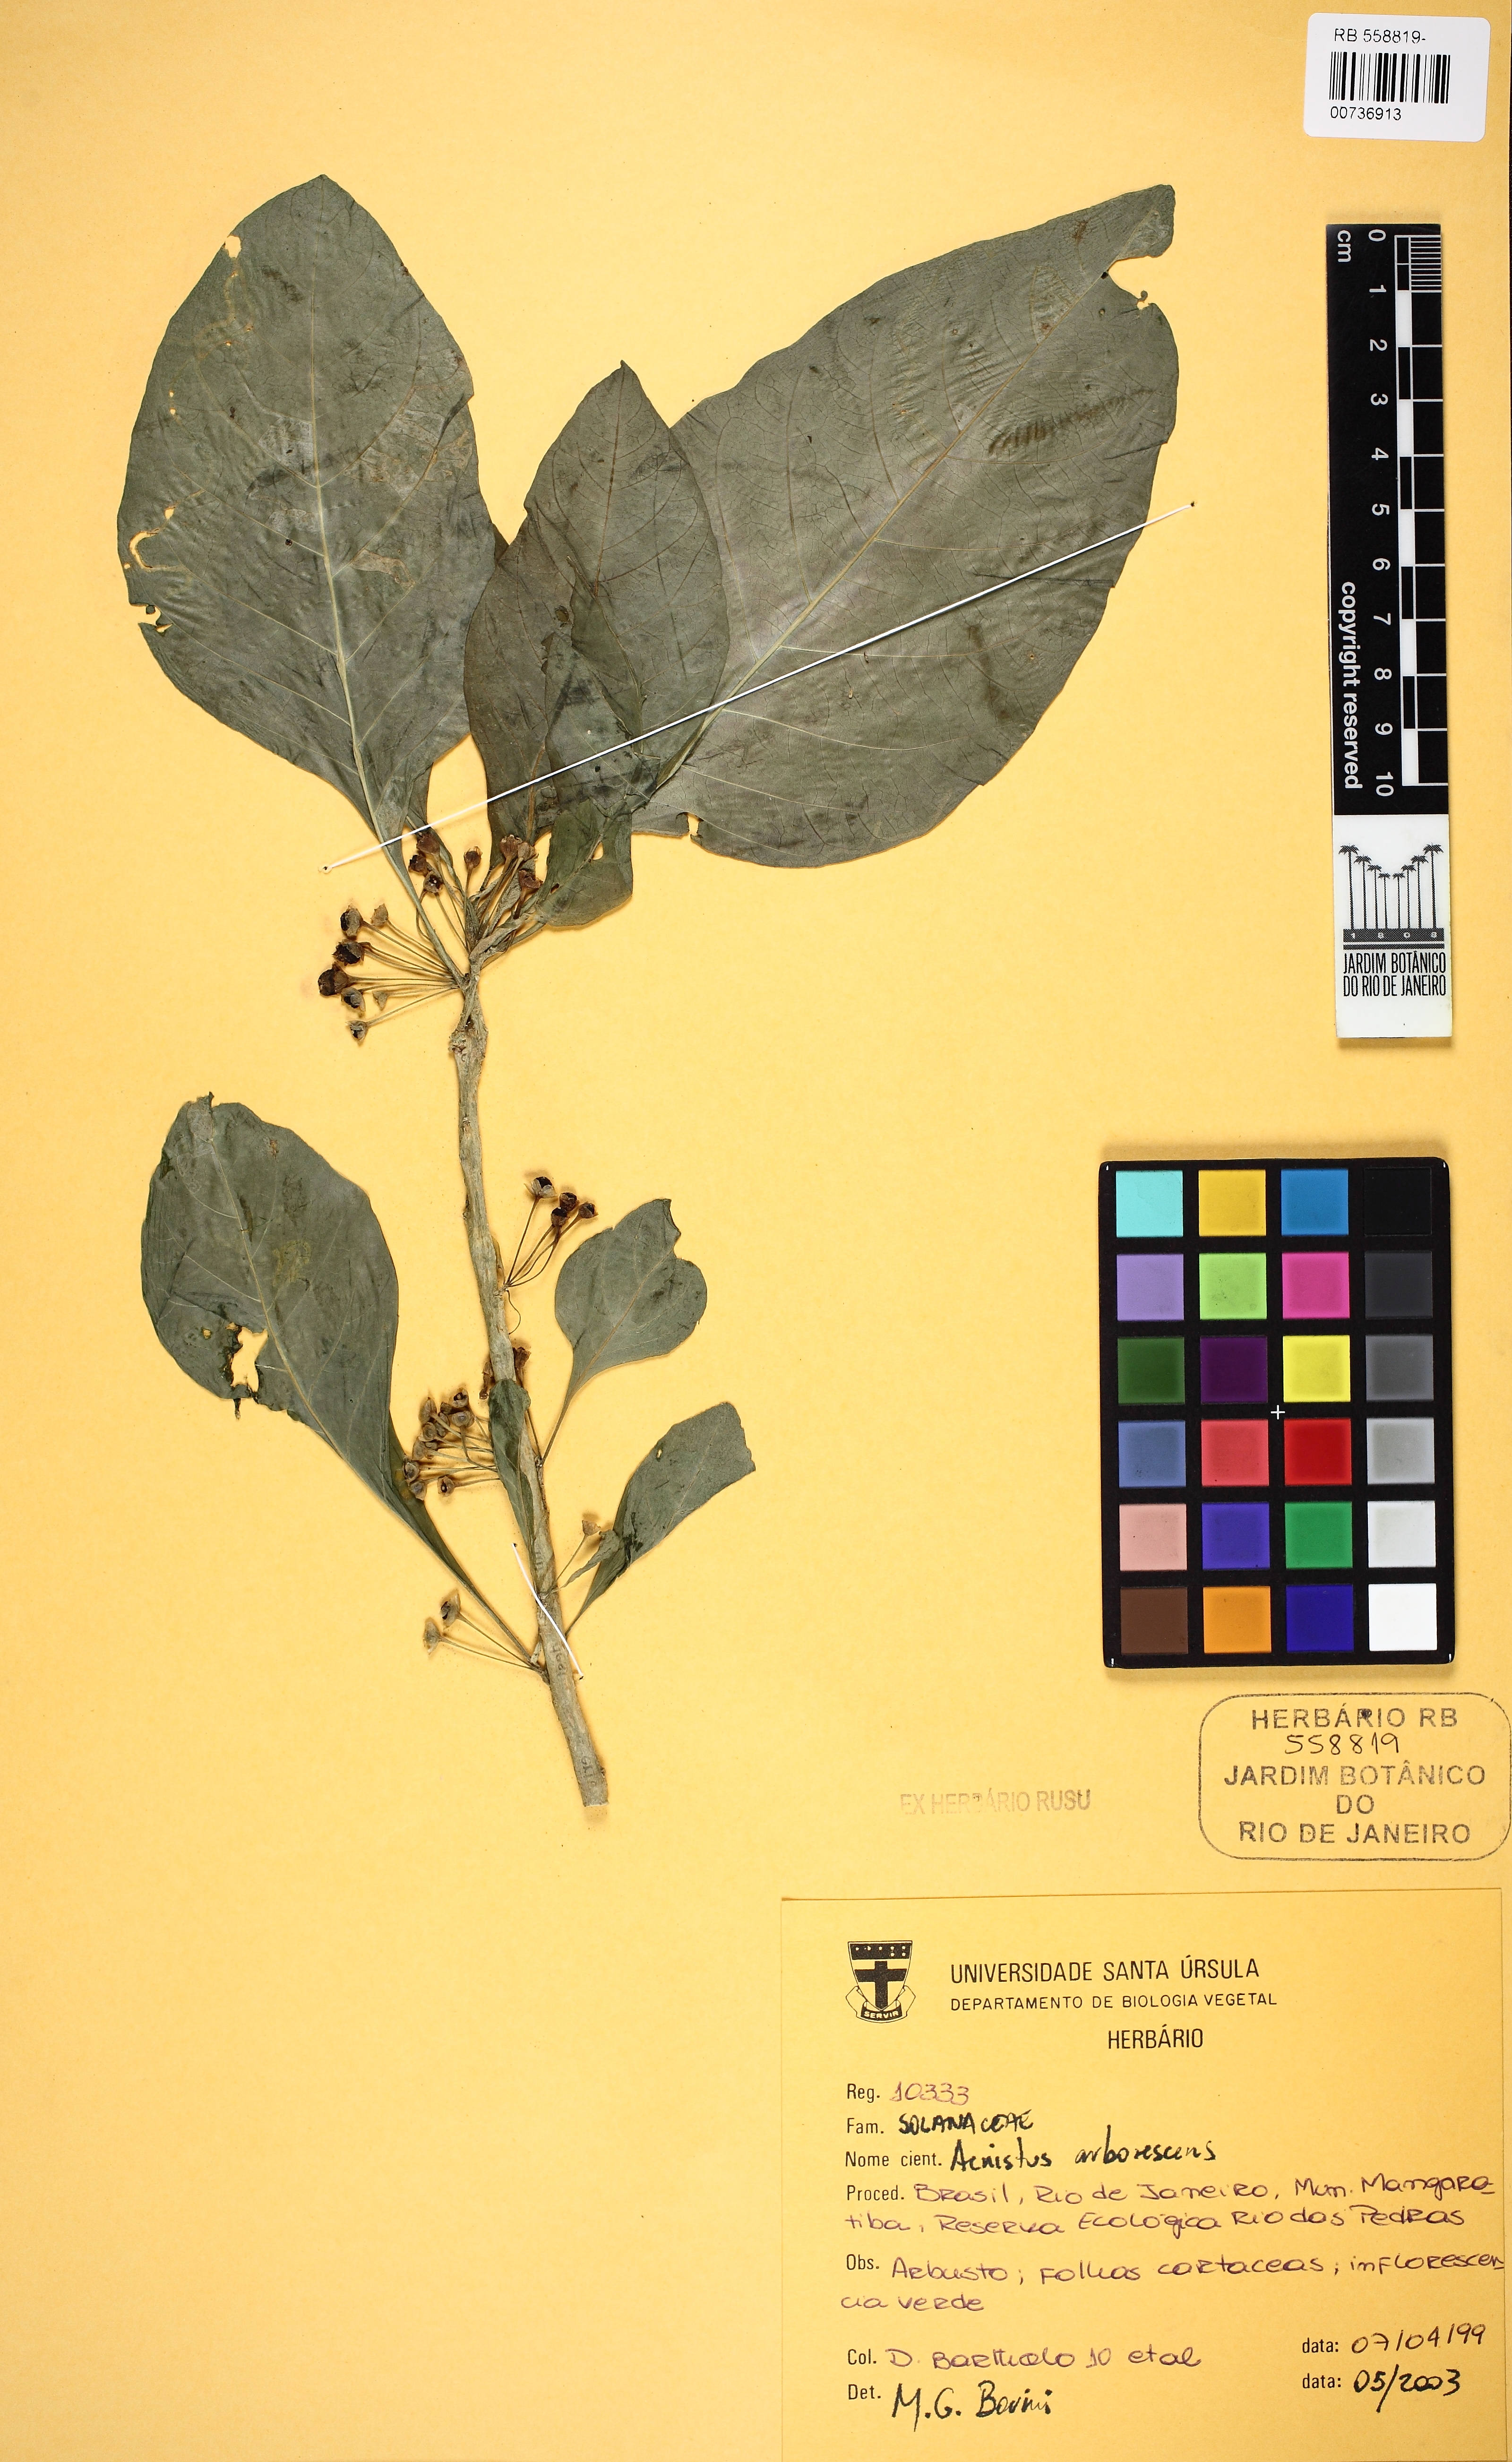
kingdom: Plantae
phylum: Tracheophyta
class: Magnoliopsida
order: Solanales
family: Solanaceae
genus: Iochroma
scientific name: Iochroma arborescens
